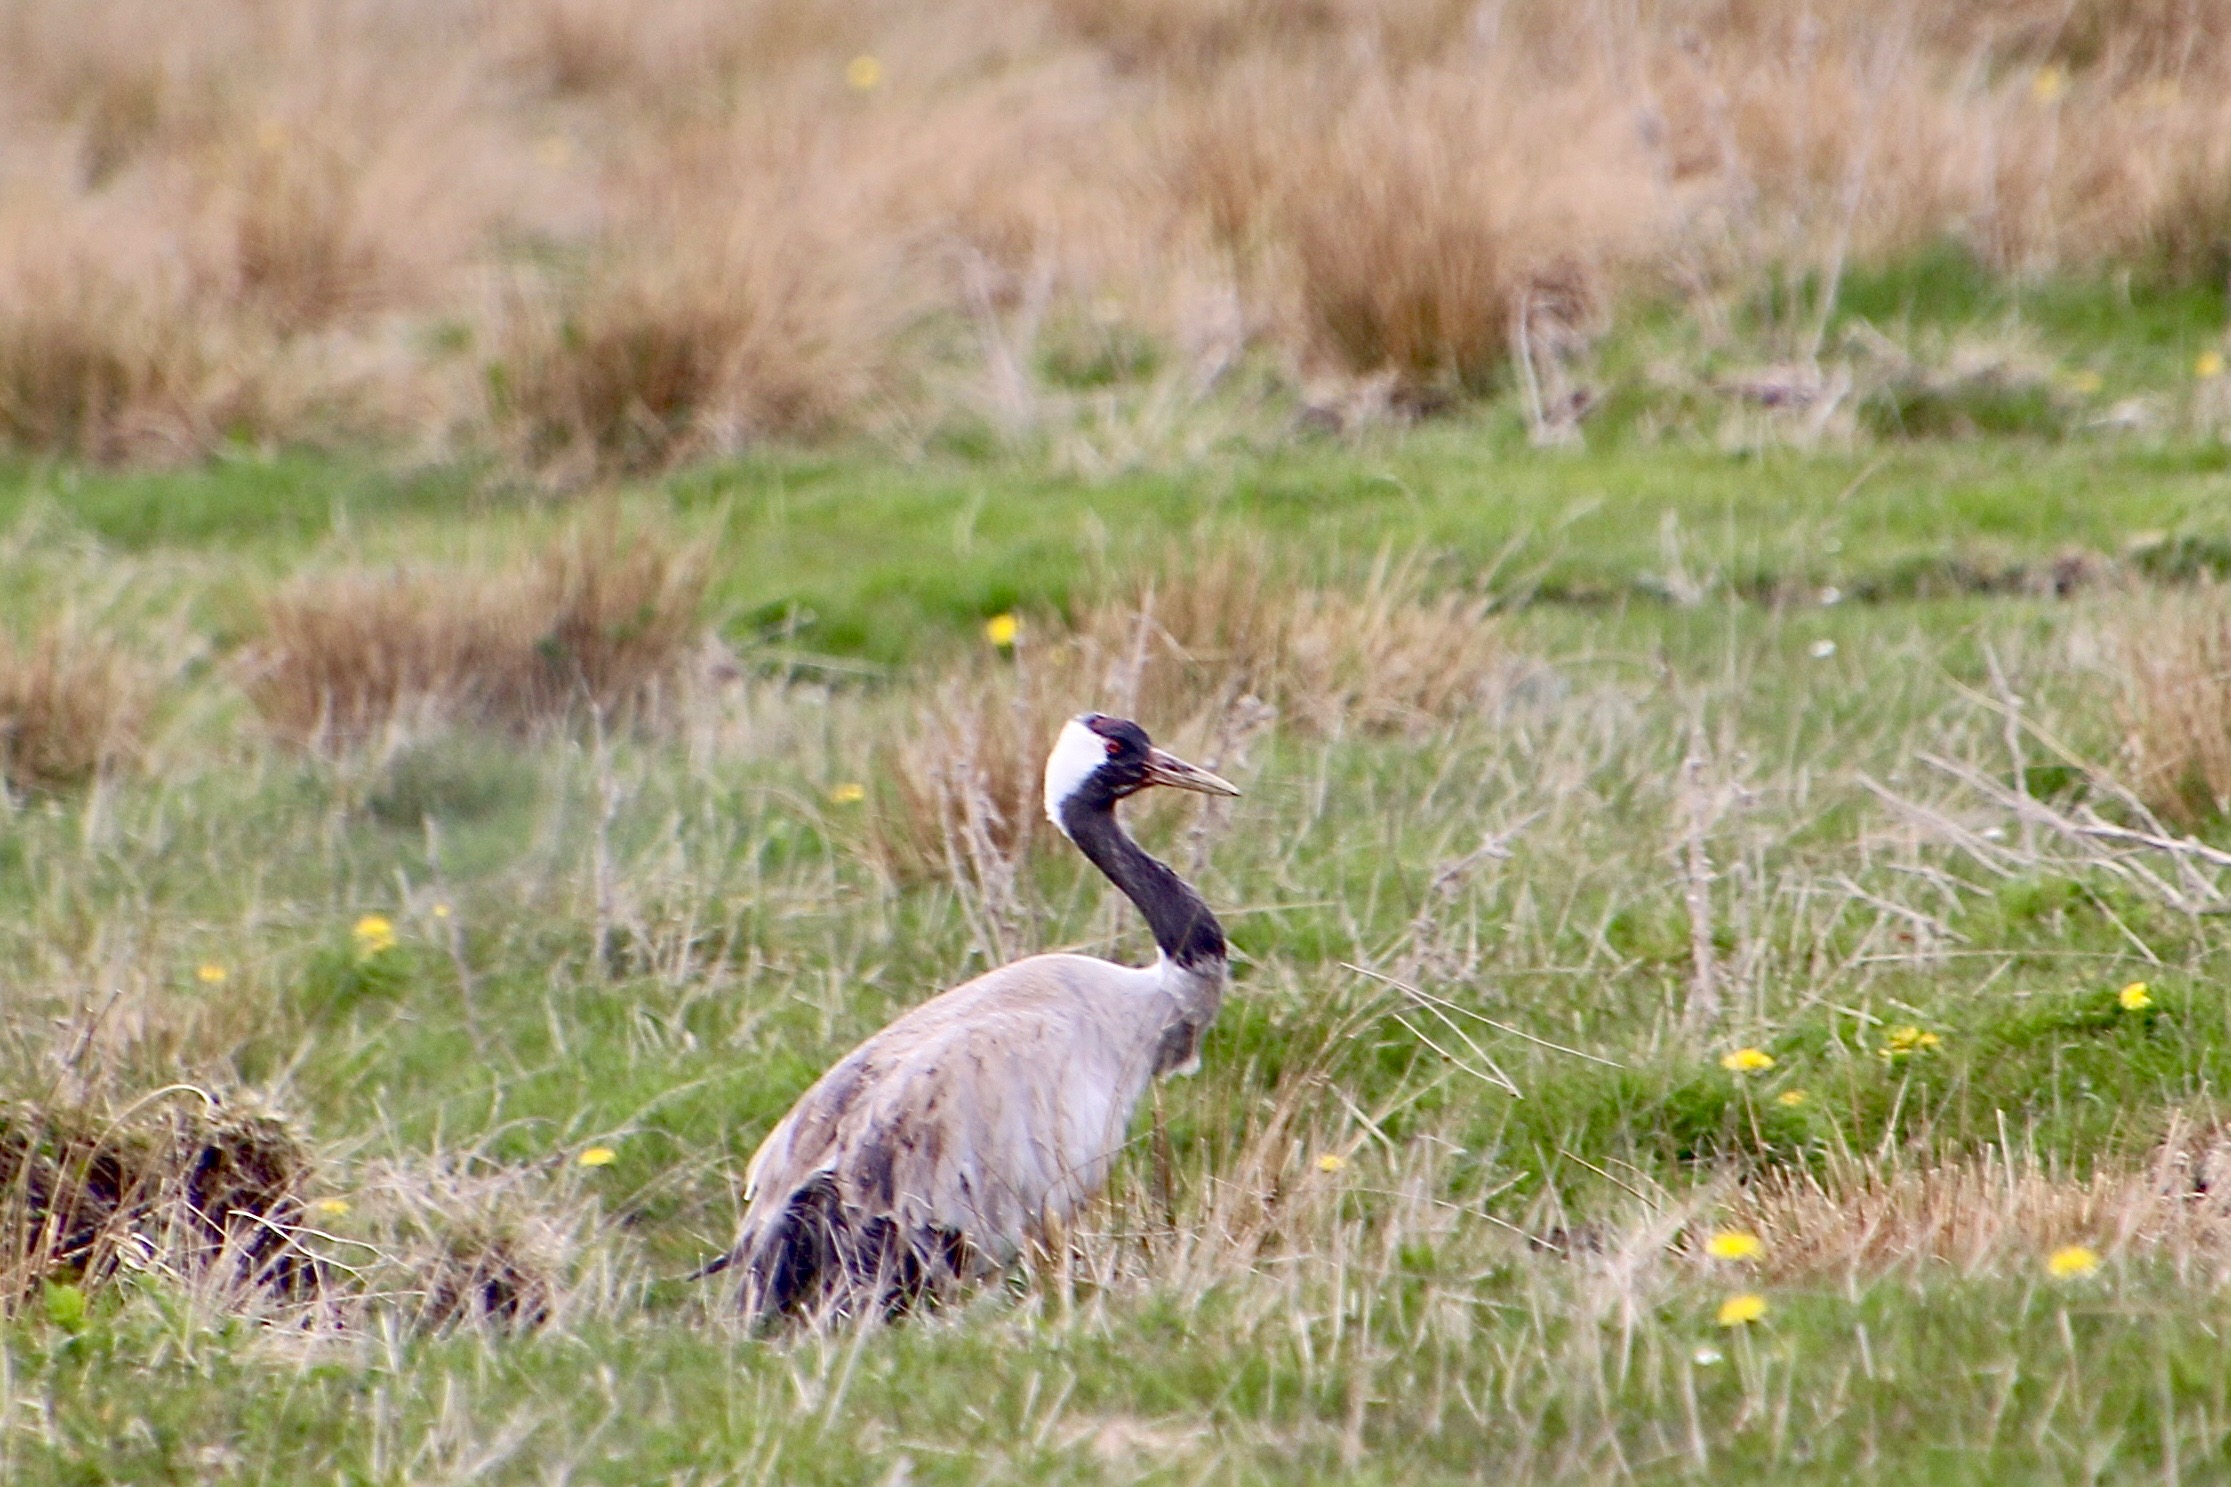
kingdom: Animalia
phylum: Chordata
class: Aves
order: Gruiformes
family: Gruidae
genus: Grus
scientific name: Grus grus
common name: Trane
